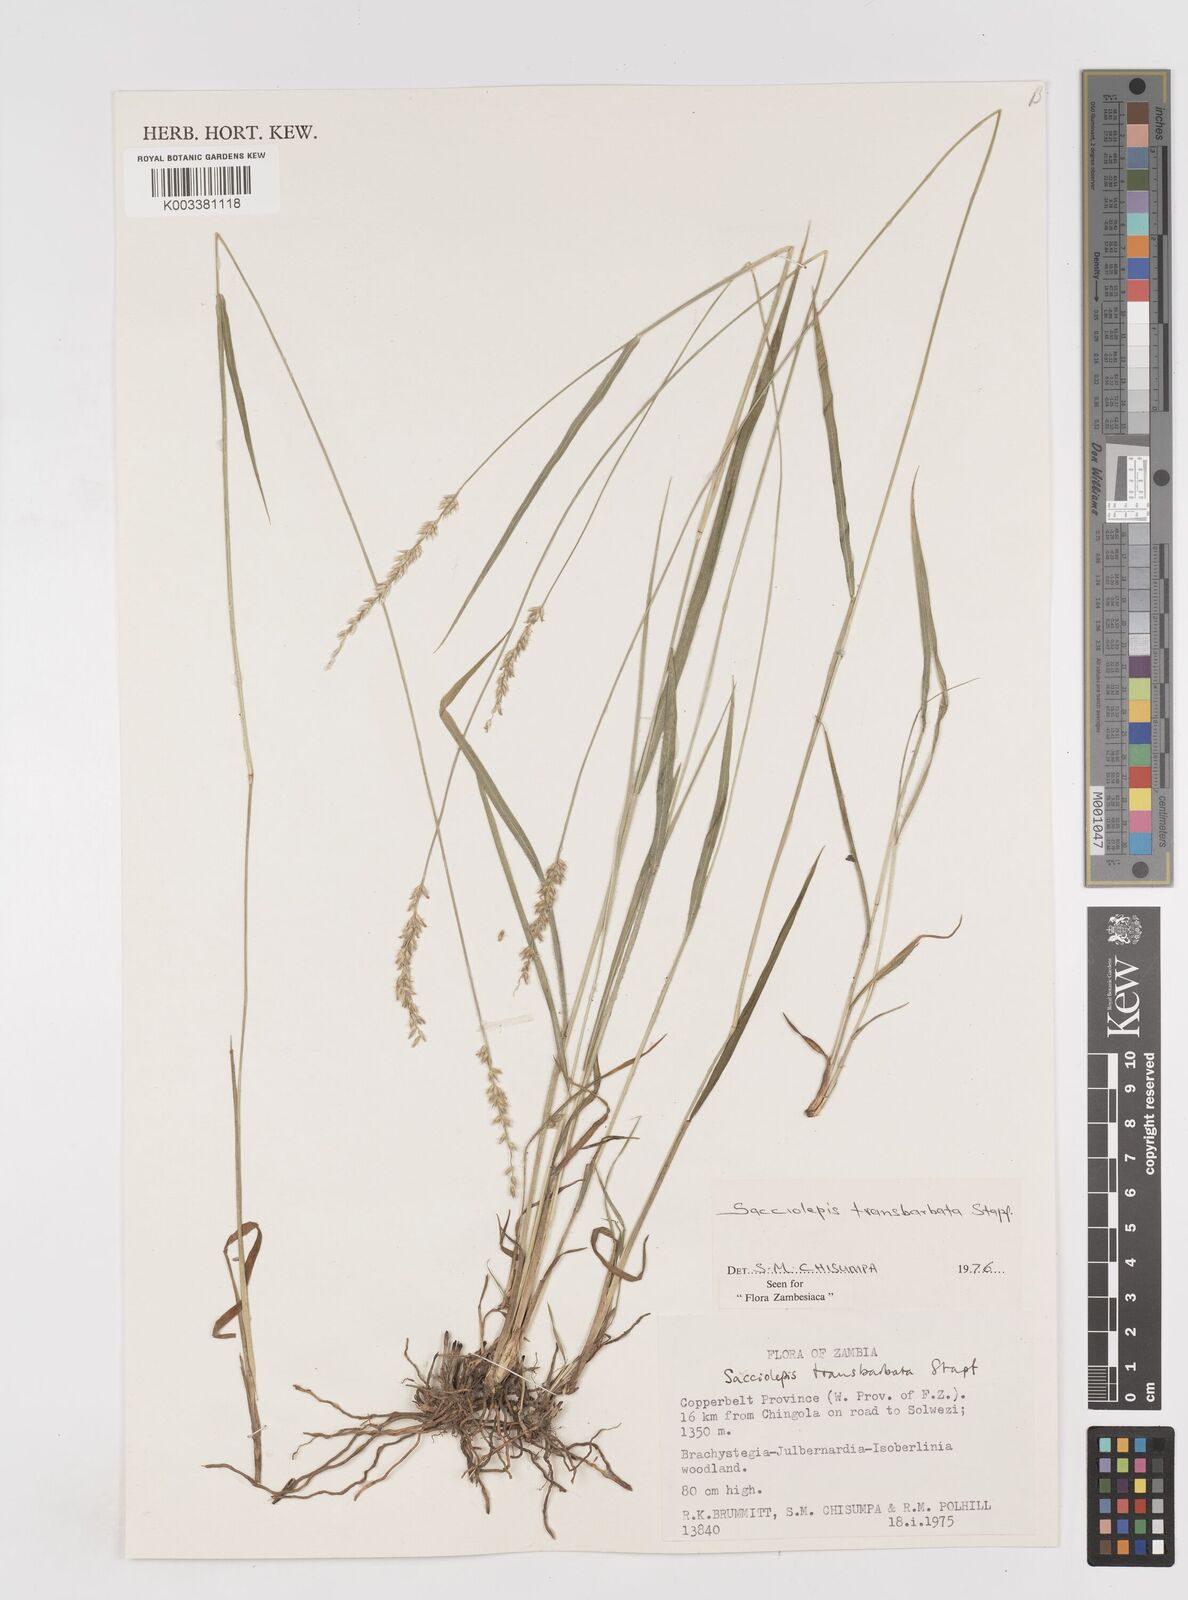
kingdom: Plantae
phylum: Tracheophyta
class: Liliopsida
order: Poales
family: Poaceae
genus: Sacciolepis
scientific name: Sacciolepis transbarbata
